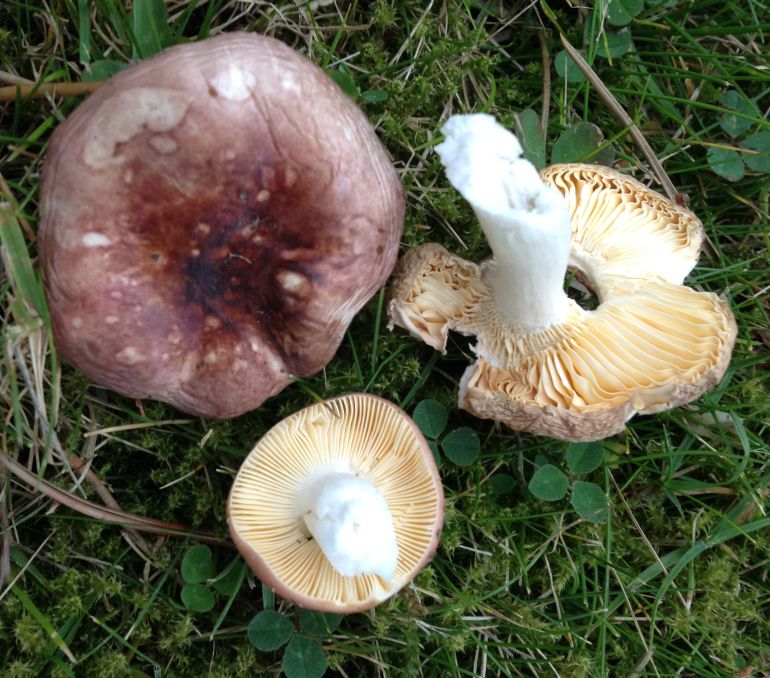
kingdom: Fungi
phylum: Basidiomycota
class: Agaricomycetes
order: Russulales
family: Russulaceae
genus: Russula
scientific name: Russula cessans
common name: fyrre-skørhat
